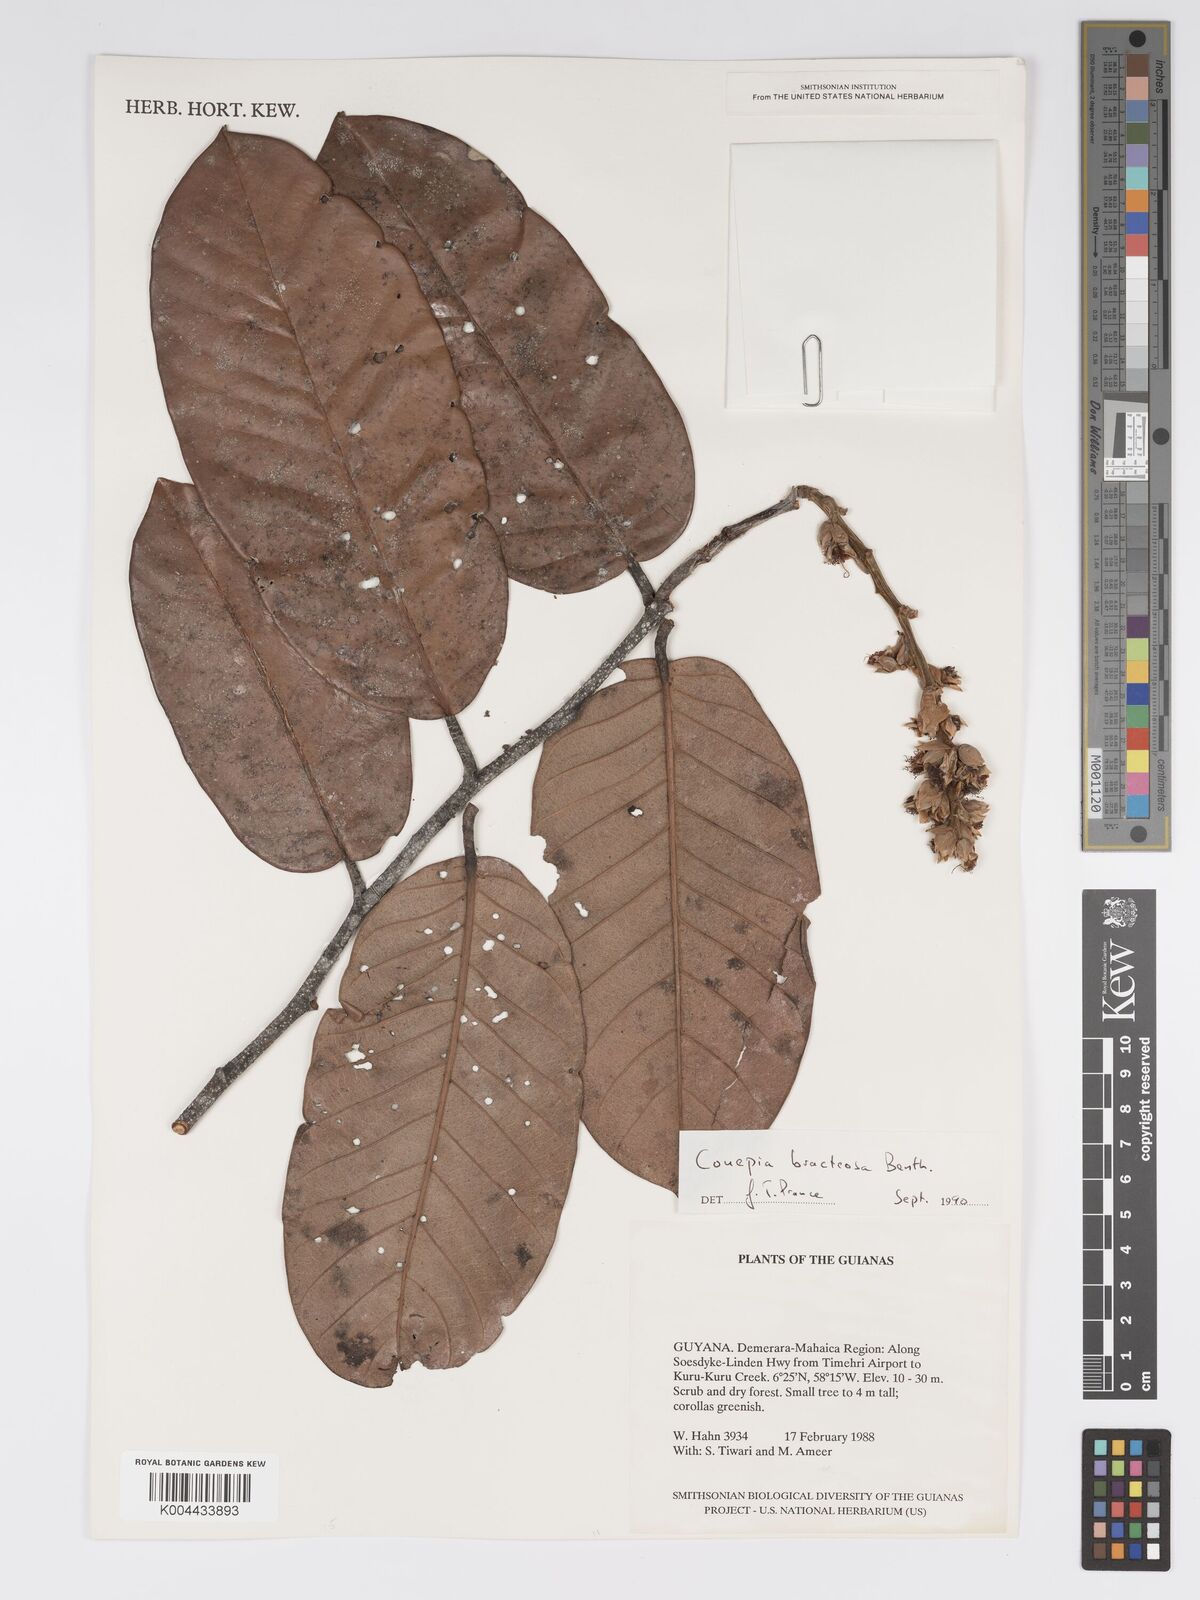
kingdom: Plantae
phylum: Tracheophyta
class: Magnoliopsida
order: Malpighiales
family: Chrysobalanaceae
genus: Couepia
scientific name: Couepia bracteosa
